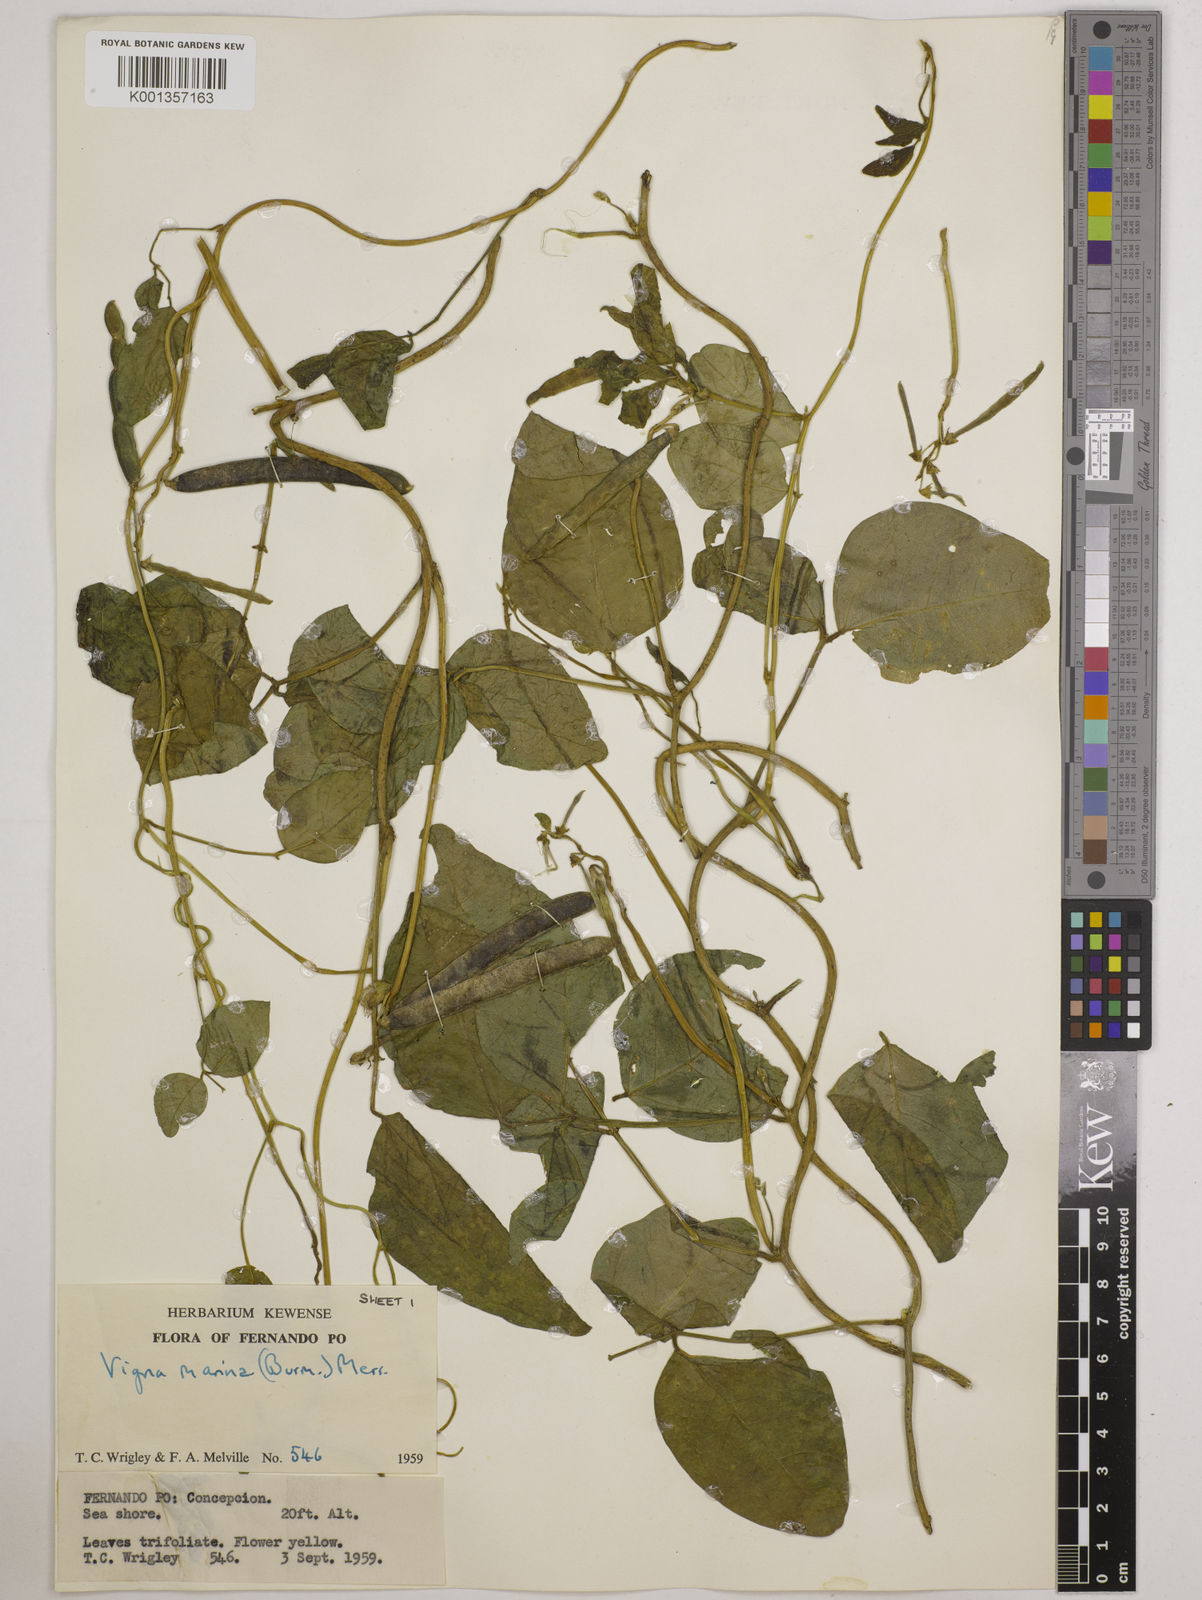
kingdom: Plantae
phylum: Tracheophyta
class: Magnoliopsida
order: Fabales
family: Fabaceae
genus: Vigna
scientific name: Vigna marina
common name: Dune-bean
